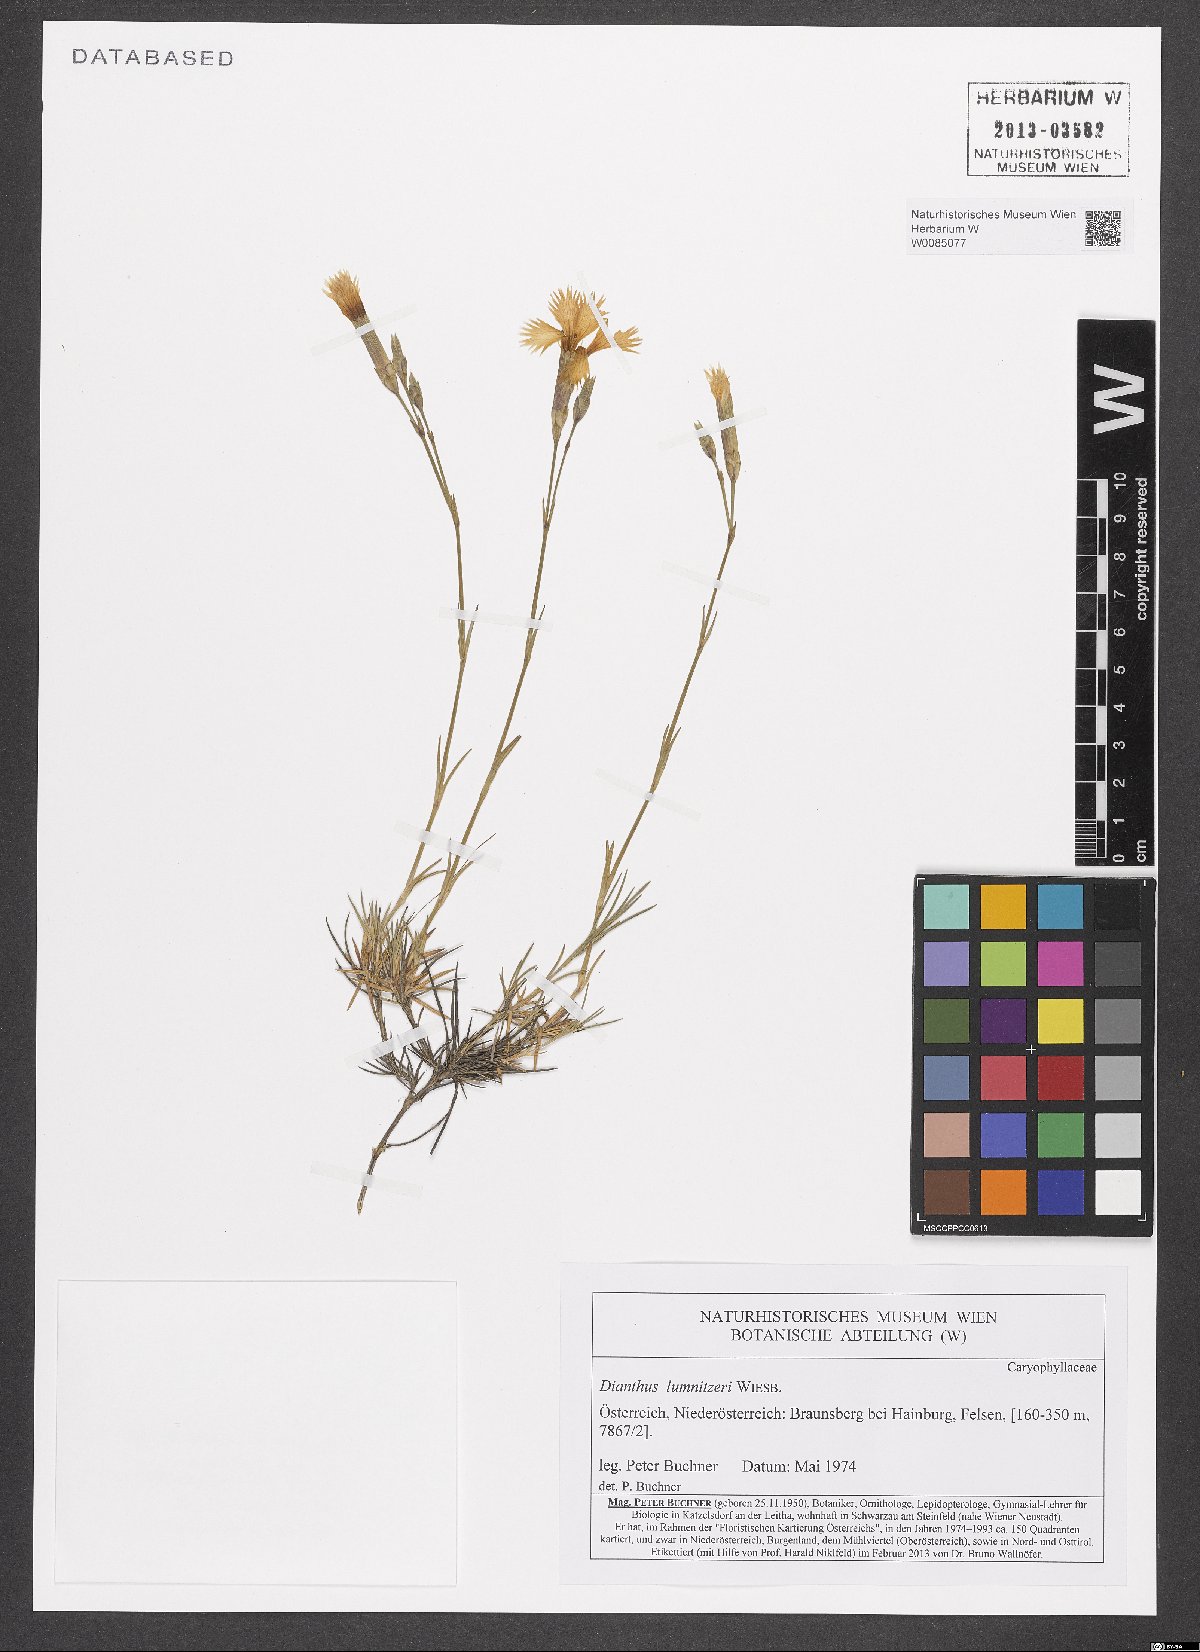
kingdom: Plantae
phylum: Tracheophyta
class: Magnoliopsida
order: Caryophyllales
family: Caryophyllaceae
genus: Dianthus
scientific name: Dianthus praecox
